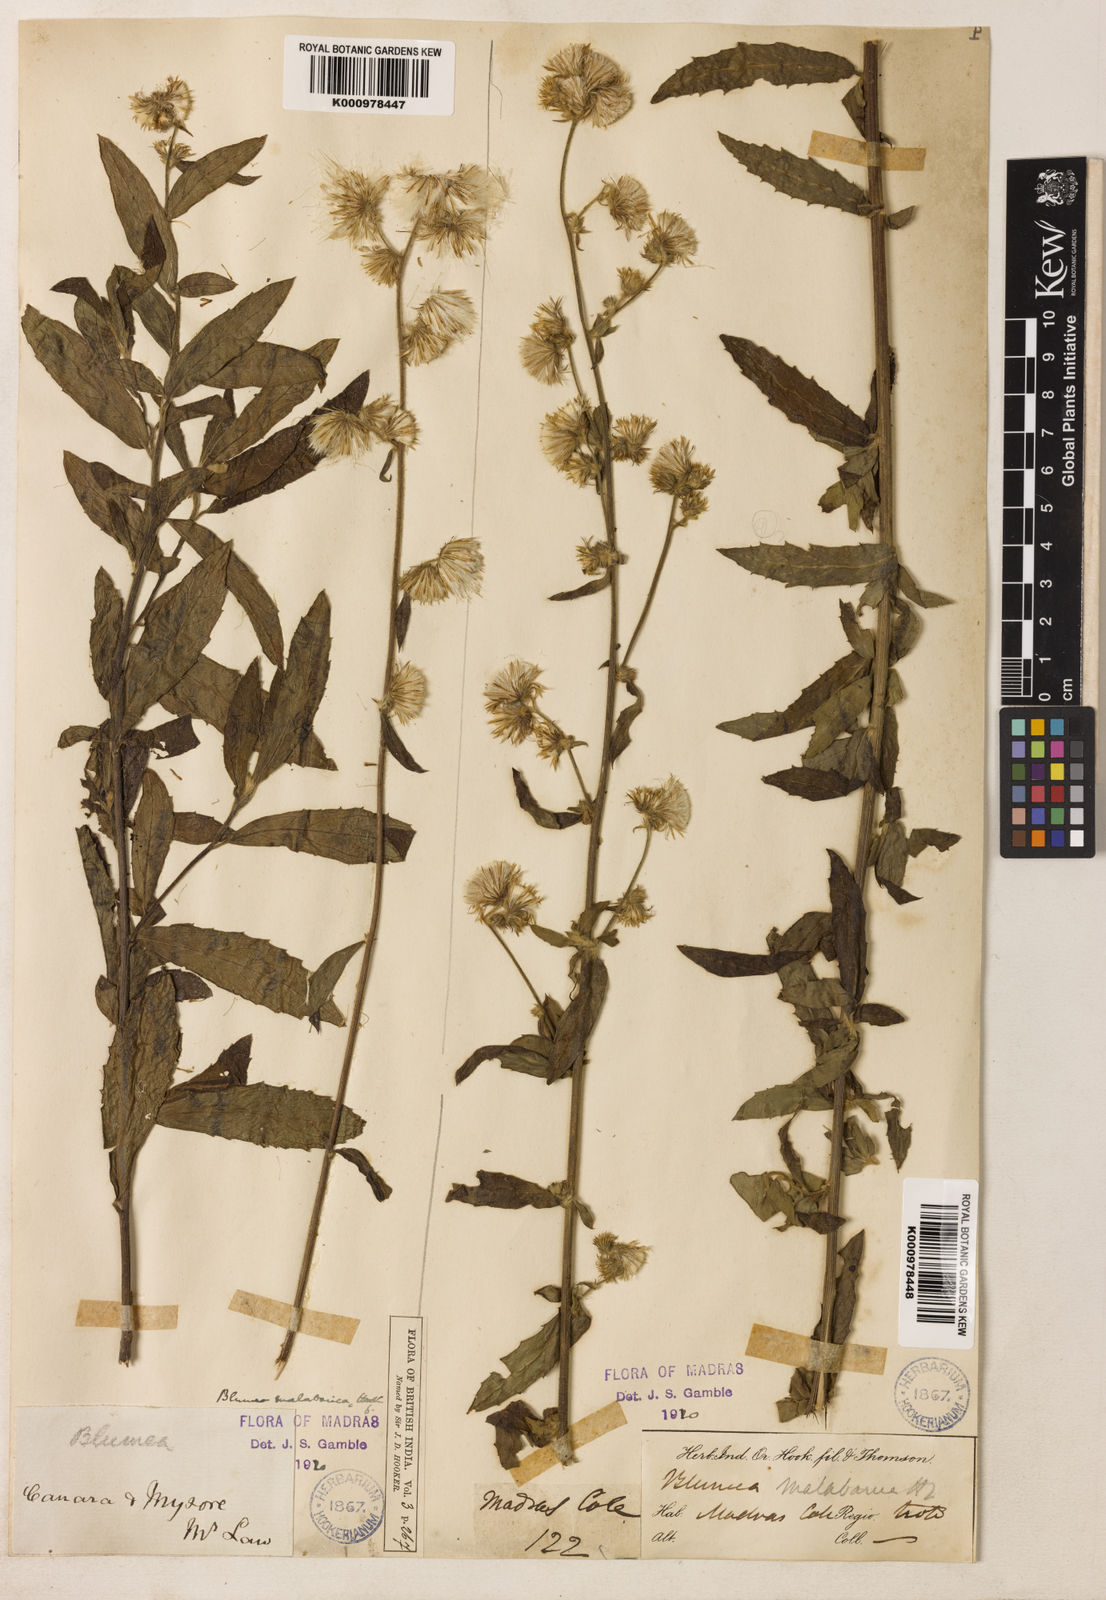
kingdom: Plantae
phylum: Tracheophyta
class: Magnoliopsida
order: Asterales
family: Asteraceae
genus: Blumea
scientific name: Blumea hirsuta
